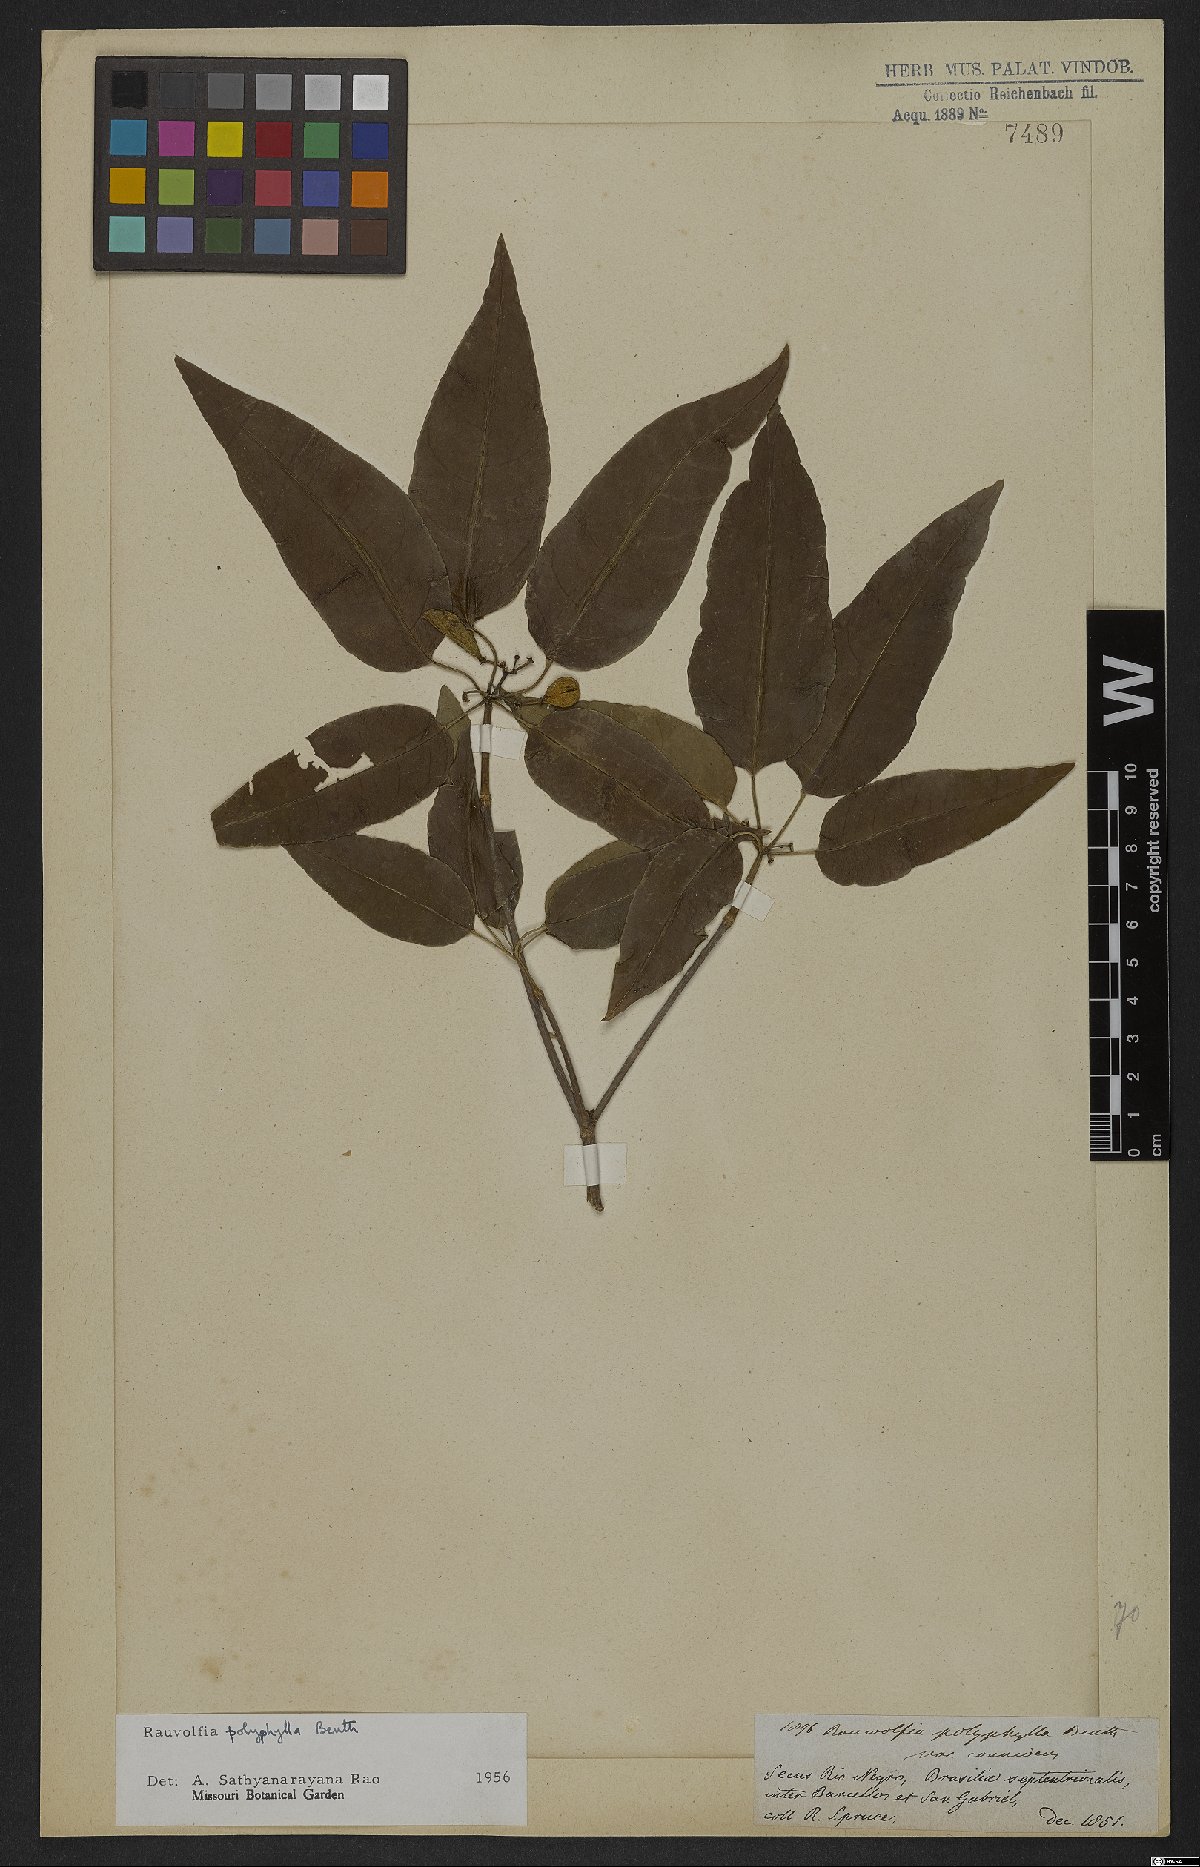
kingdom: Plantae
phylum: Tracheophyta
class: Magnoliopsida
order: Gentianales
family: Apocynaceae
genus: Rauvolfia
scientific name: Rauvolfia polyphylla
